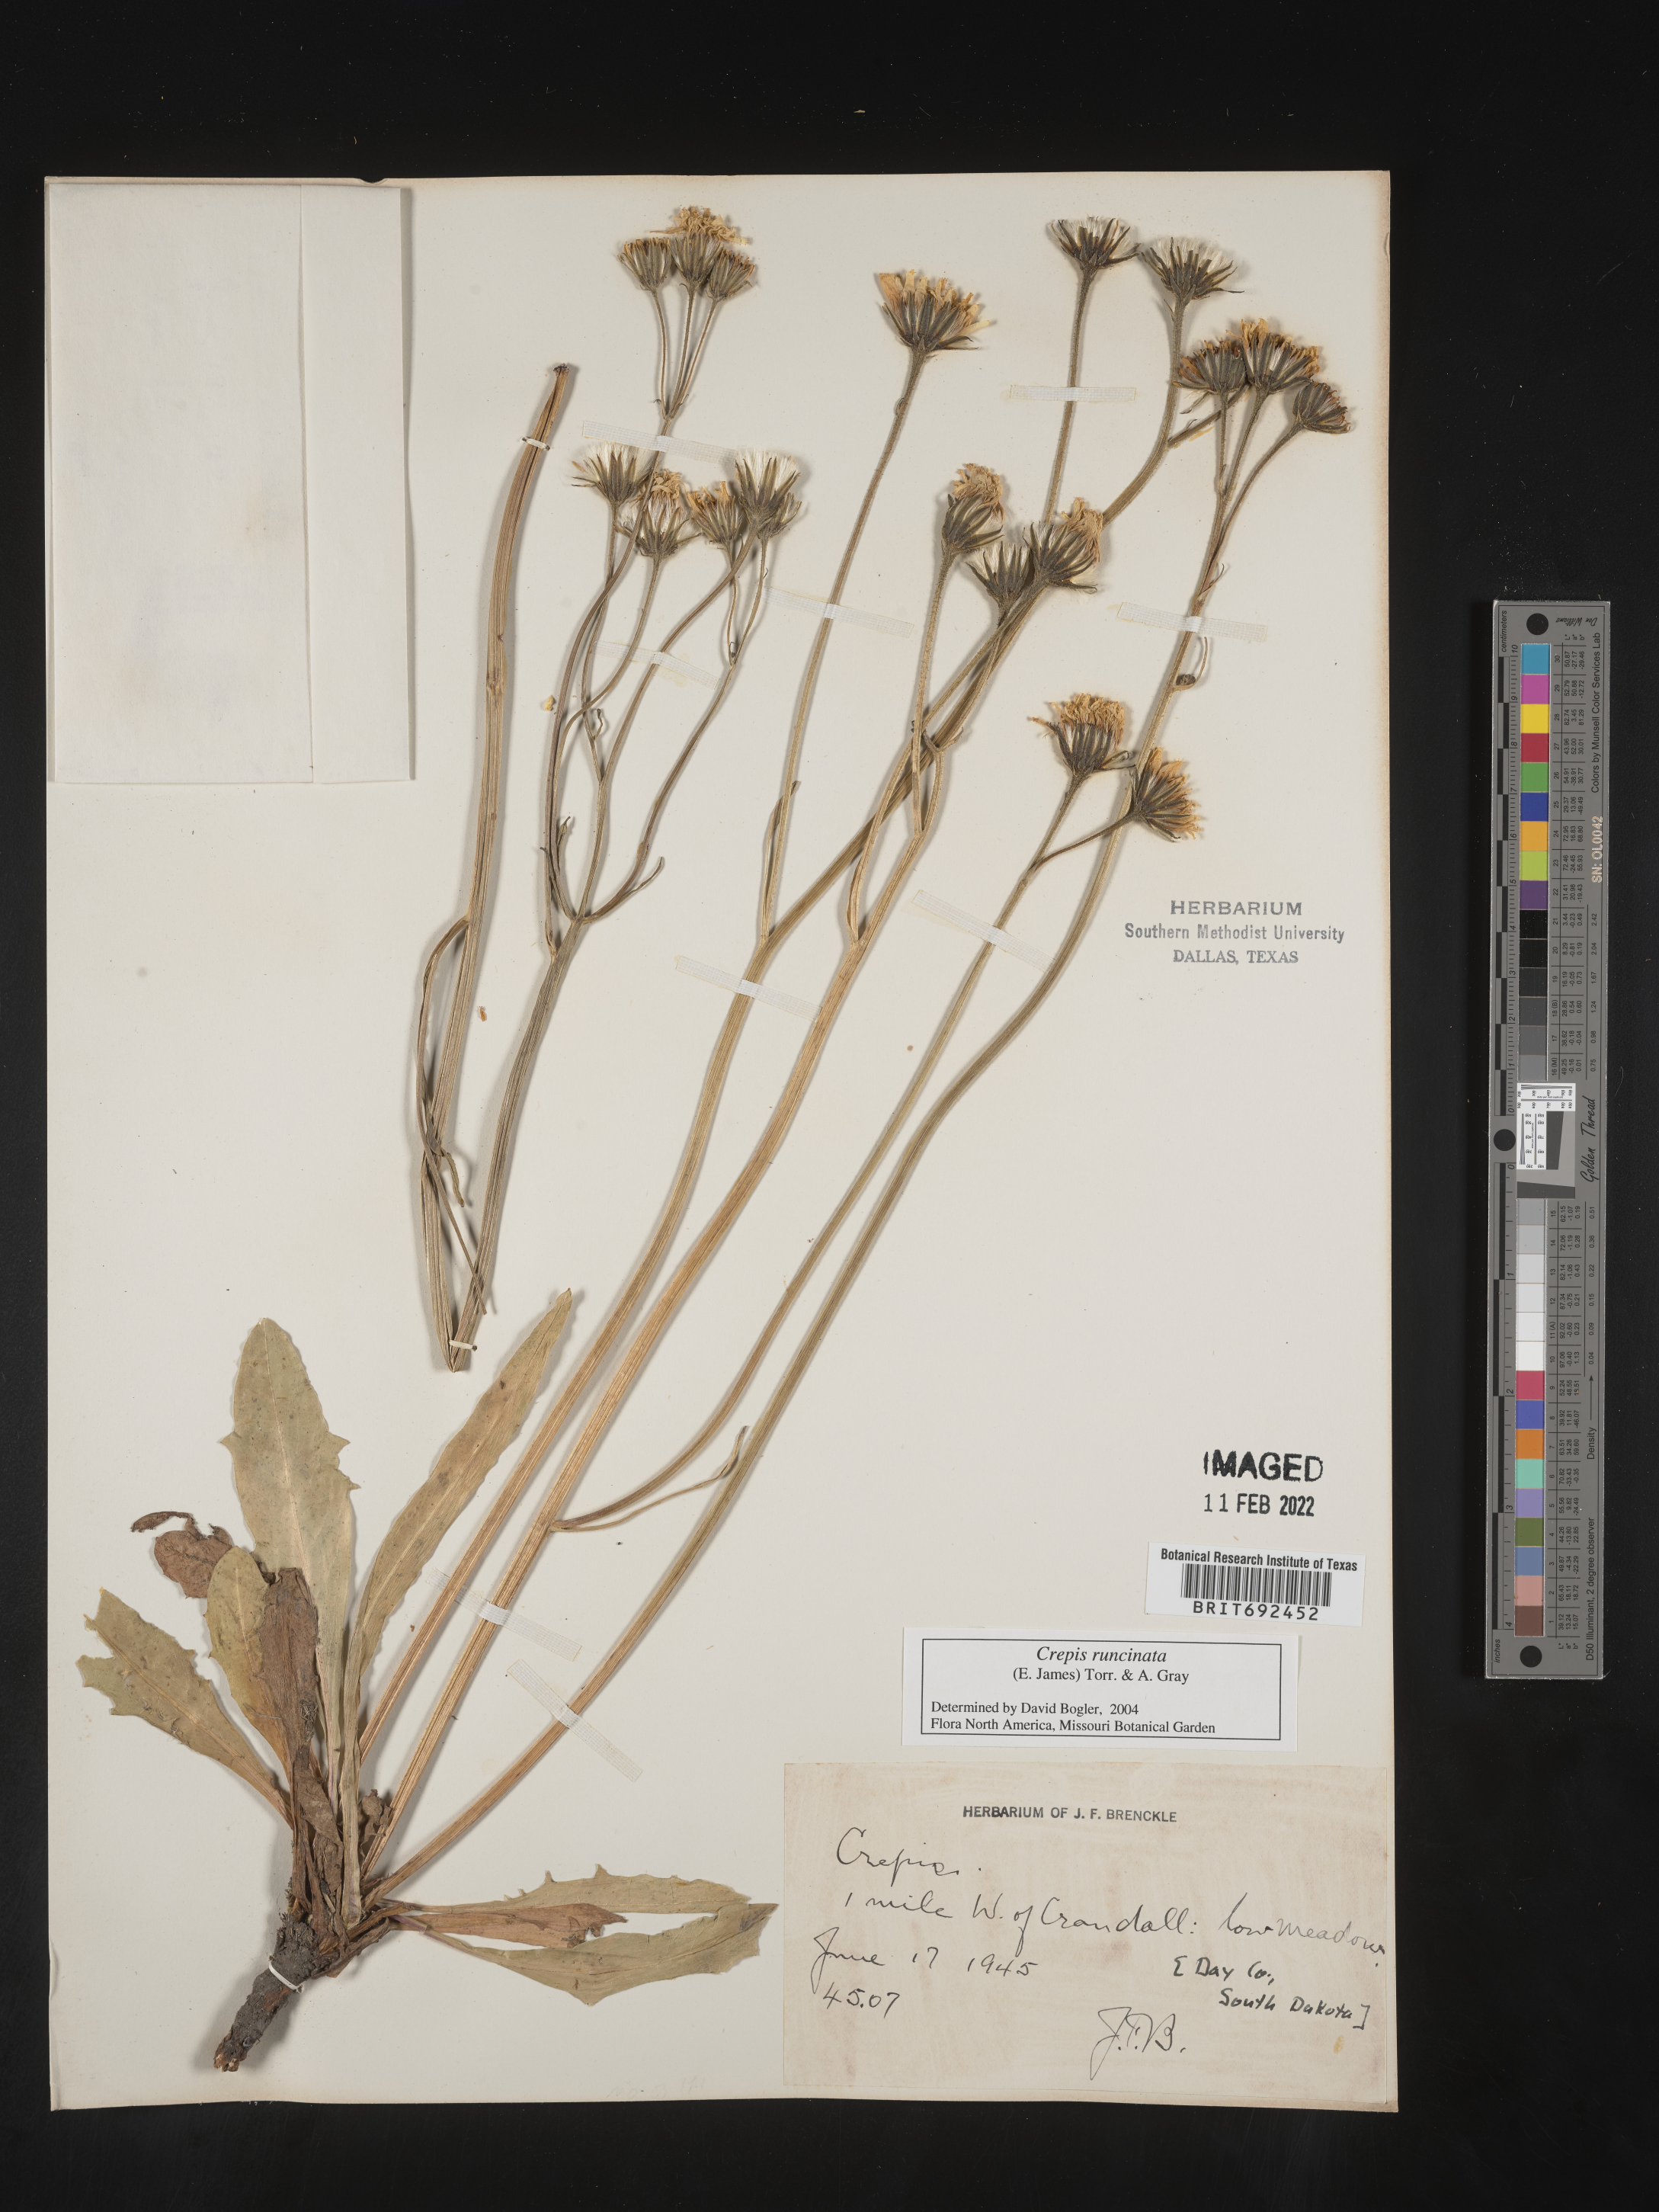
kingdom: Plantae
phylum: Tracheophyta
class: Magnoliopsida
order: Asterales
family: Asteraceae
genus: Crepis
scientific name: Crepis
